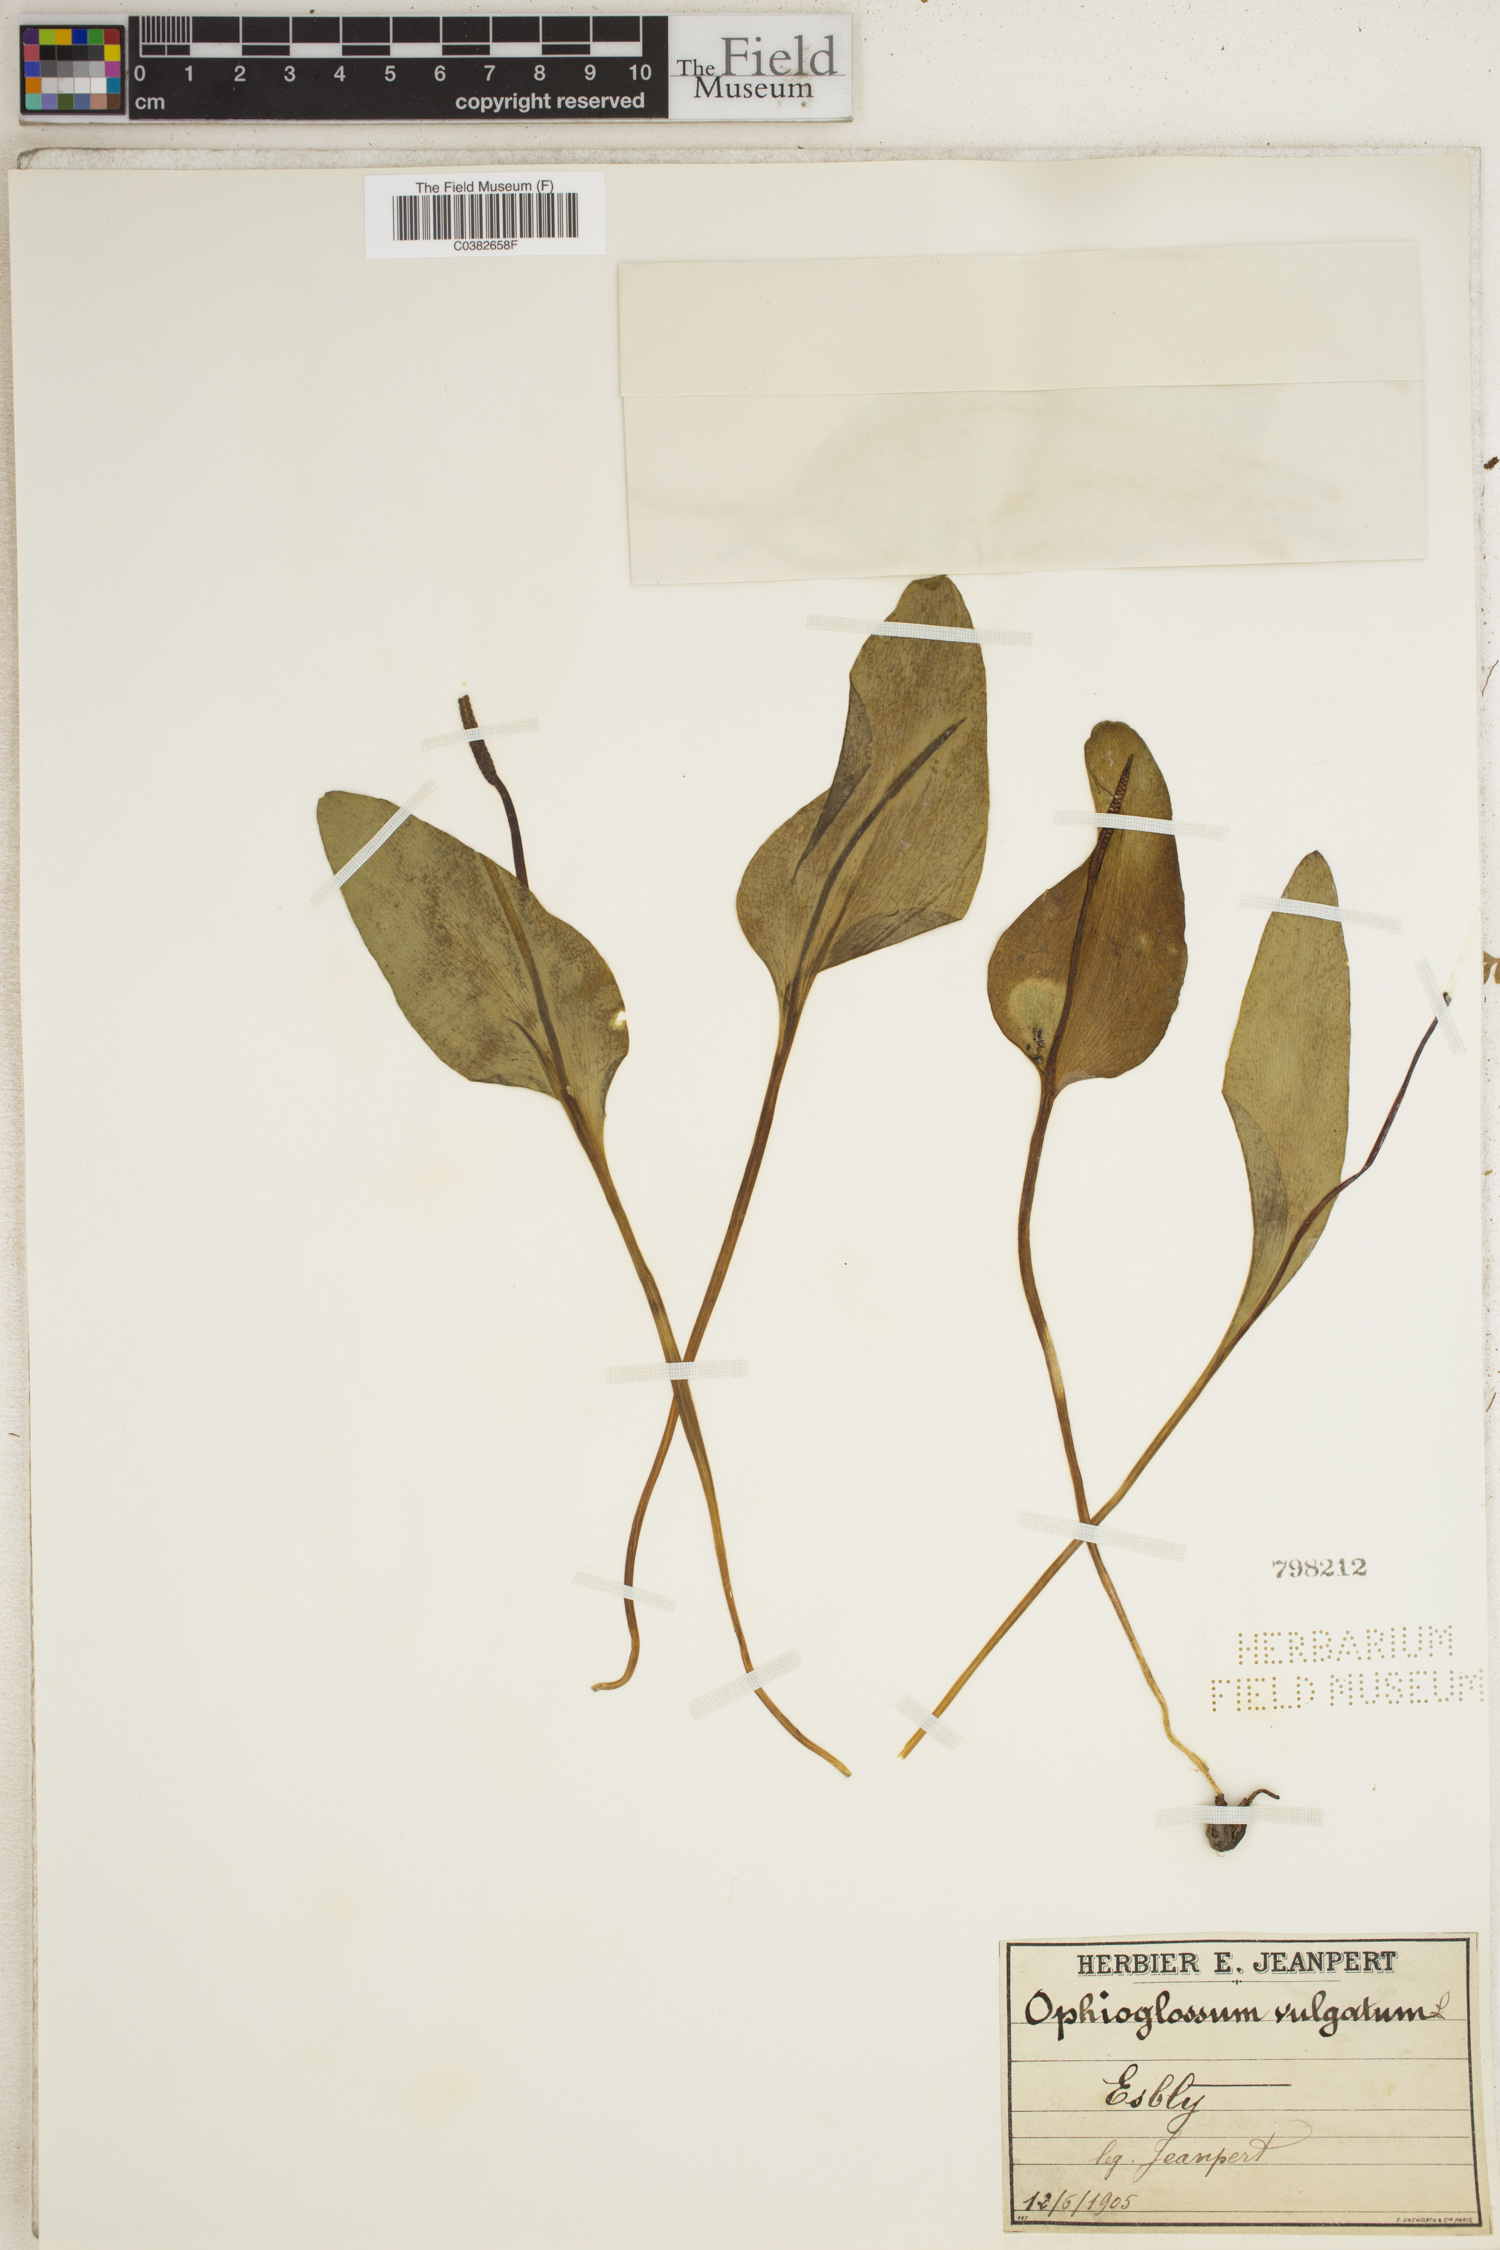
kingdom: Plantae
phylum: Tracheophyta
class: Polypodiopsida
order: Ophioglossales
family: Ophioglossaceae
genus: Ophioglossum
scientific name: Ophioglossum vulgatum
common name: Adder's-tongue
